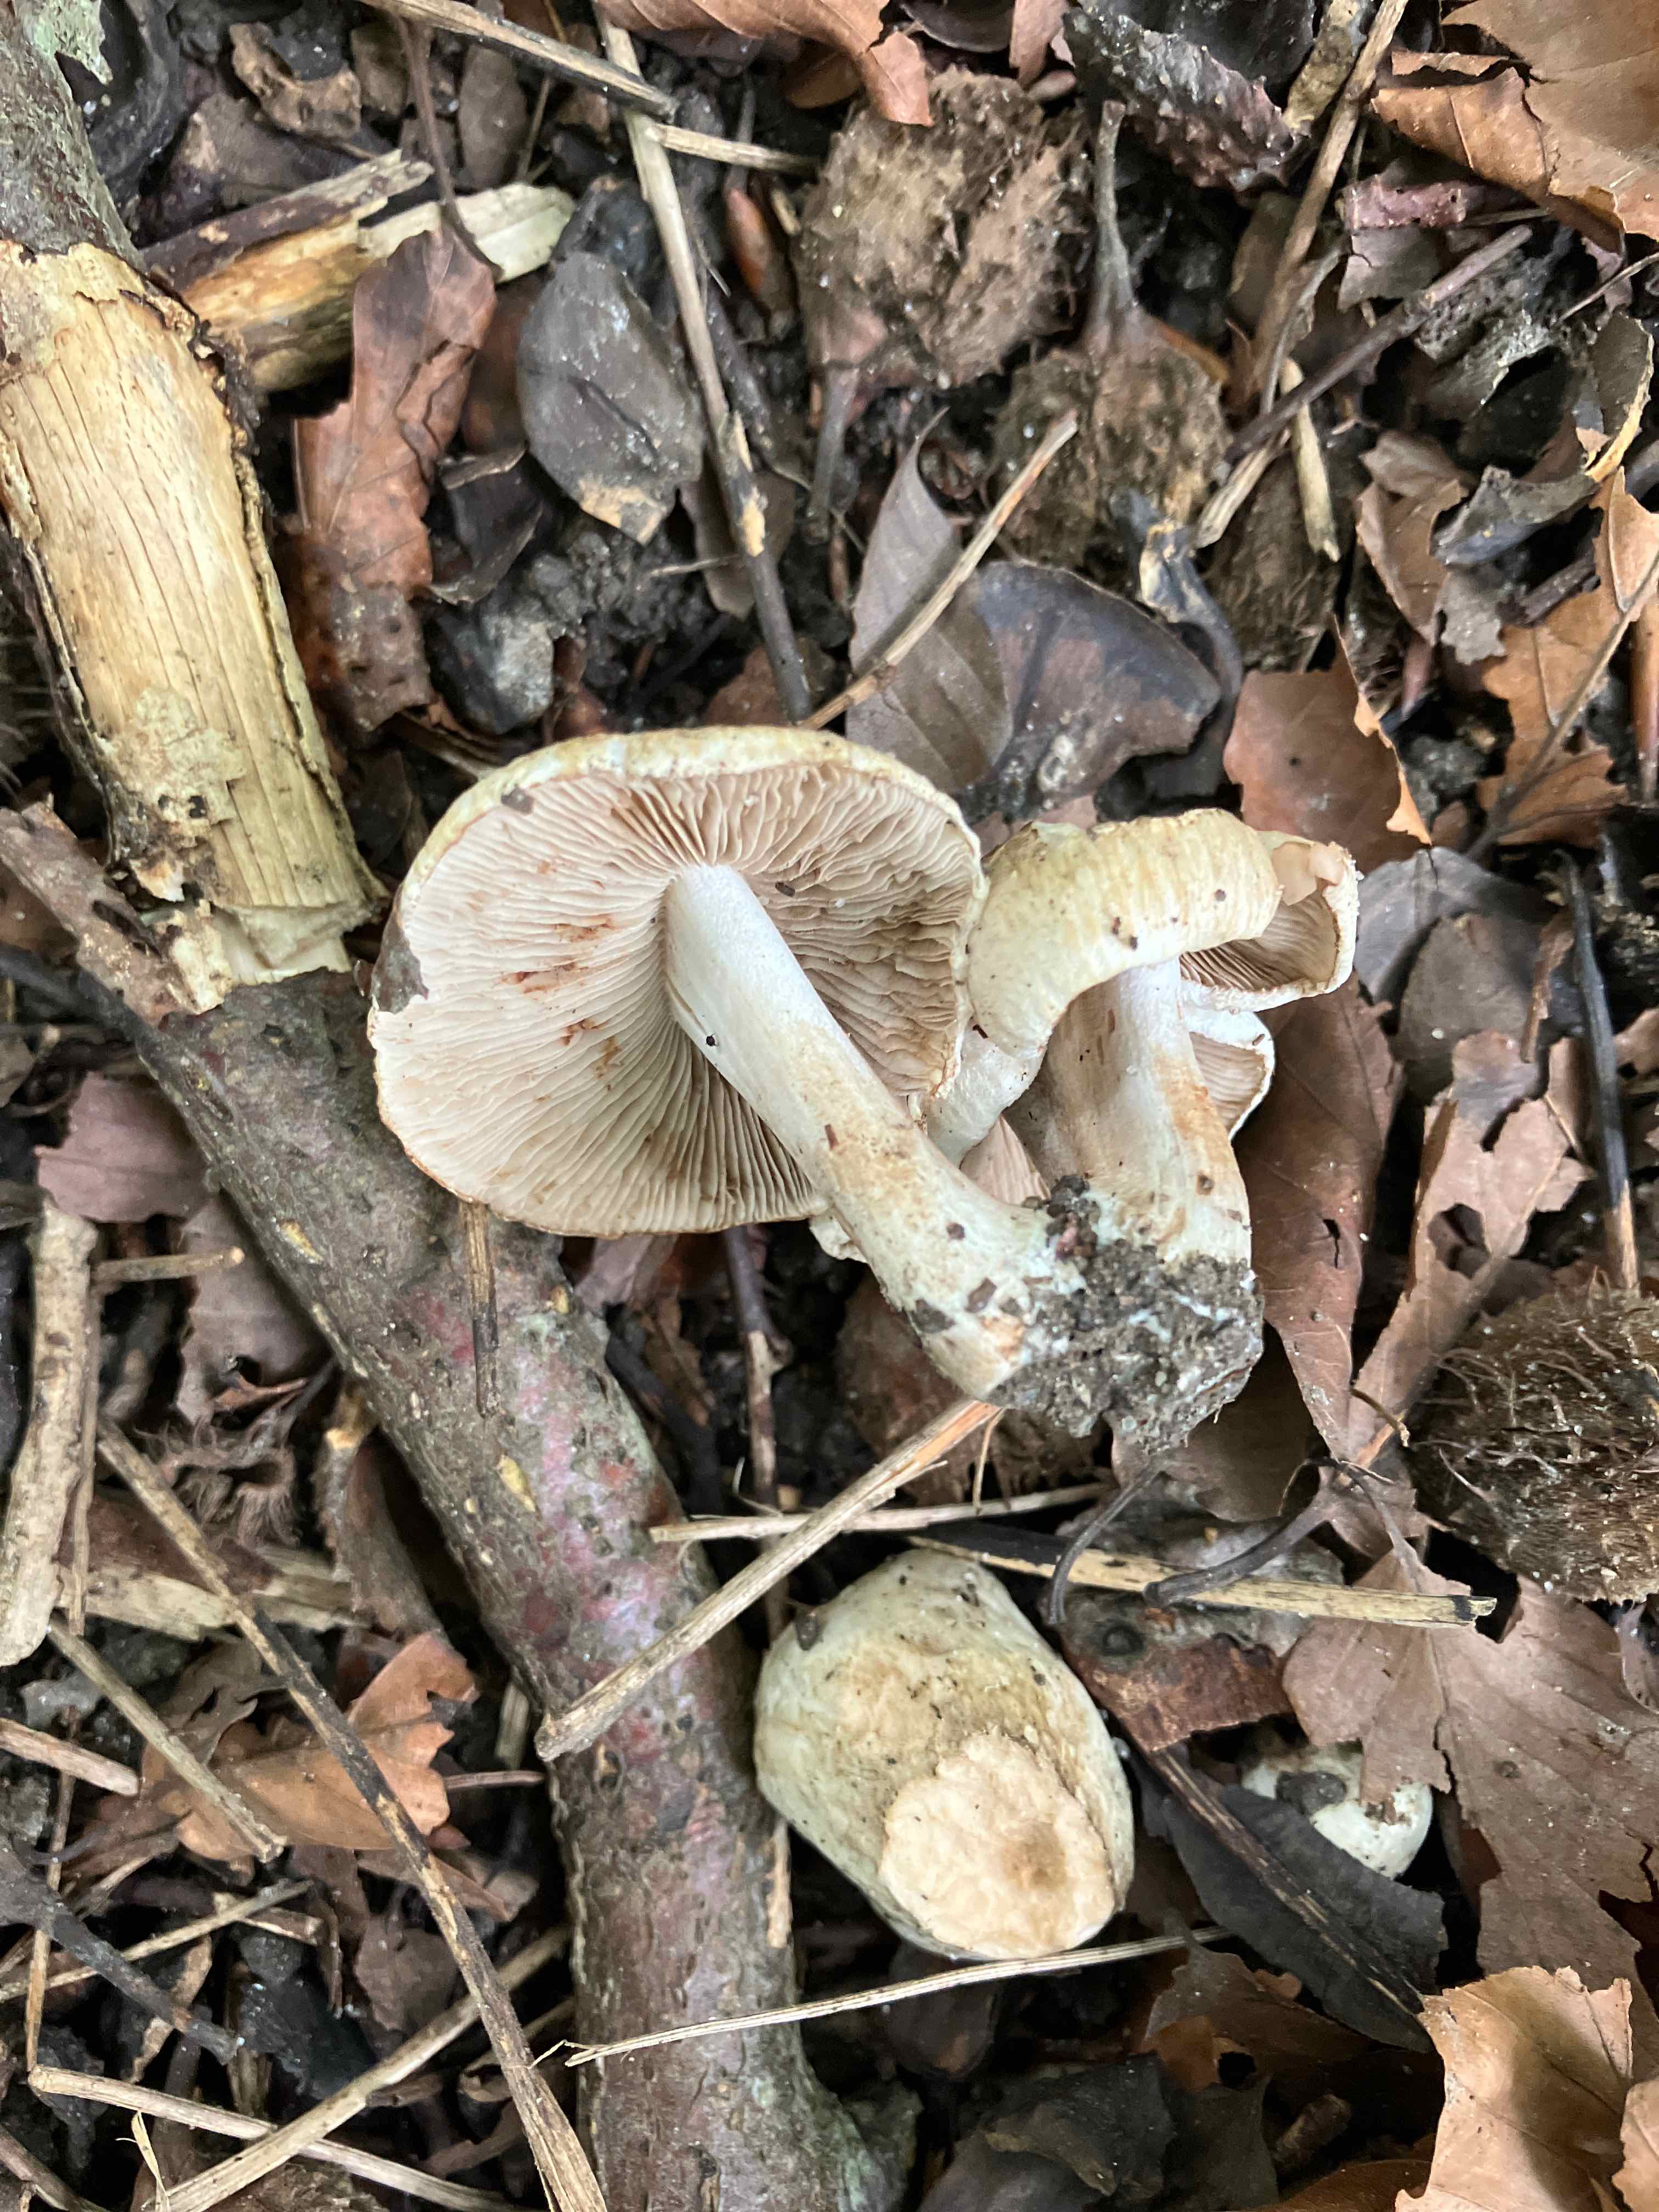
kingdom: Fungi
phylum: Basidiomycota
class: Agaricomycetes
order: Agaricales
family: Inocybaceae
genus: Inocybe
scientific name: Inocybe corydalina
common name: grønpuklet trævlhat
